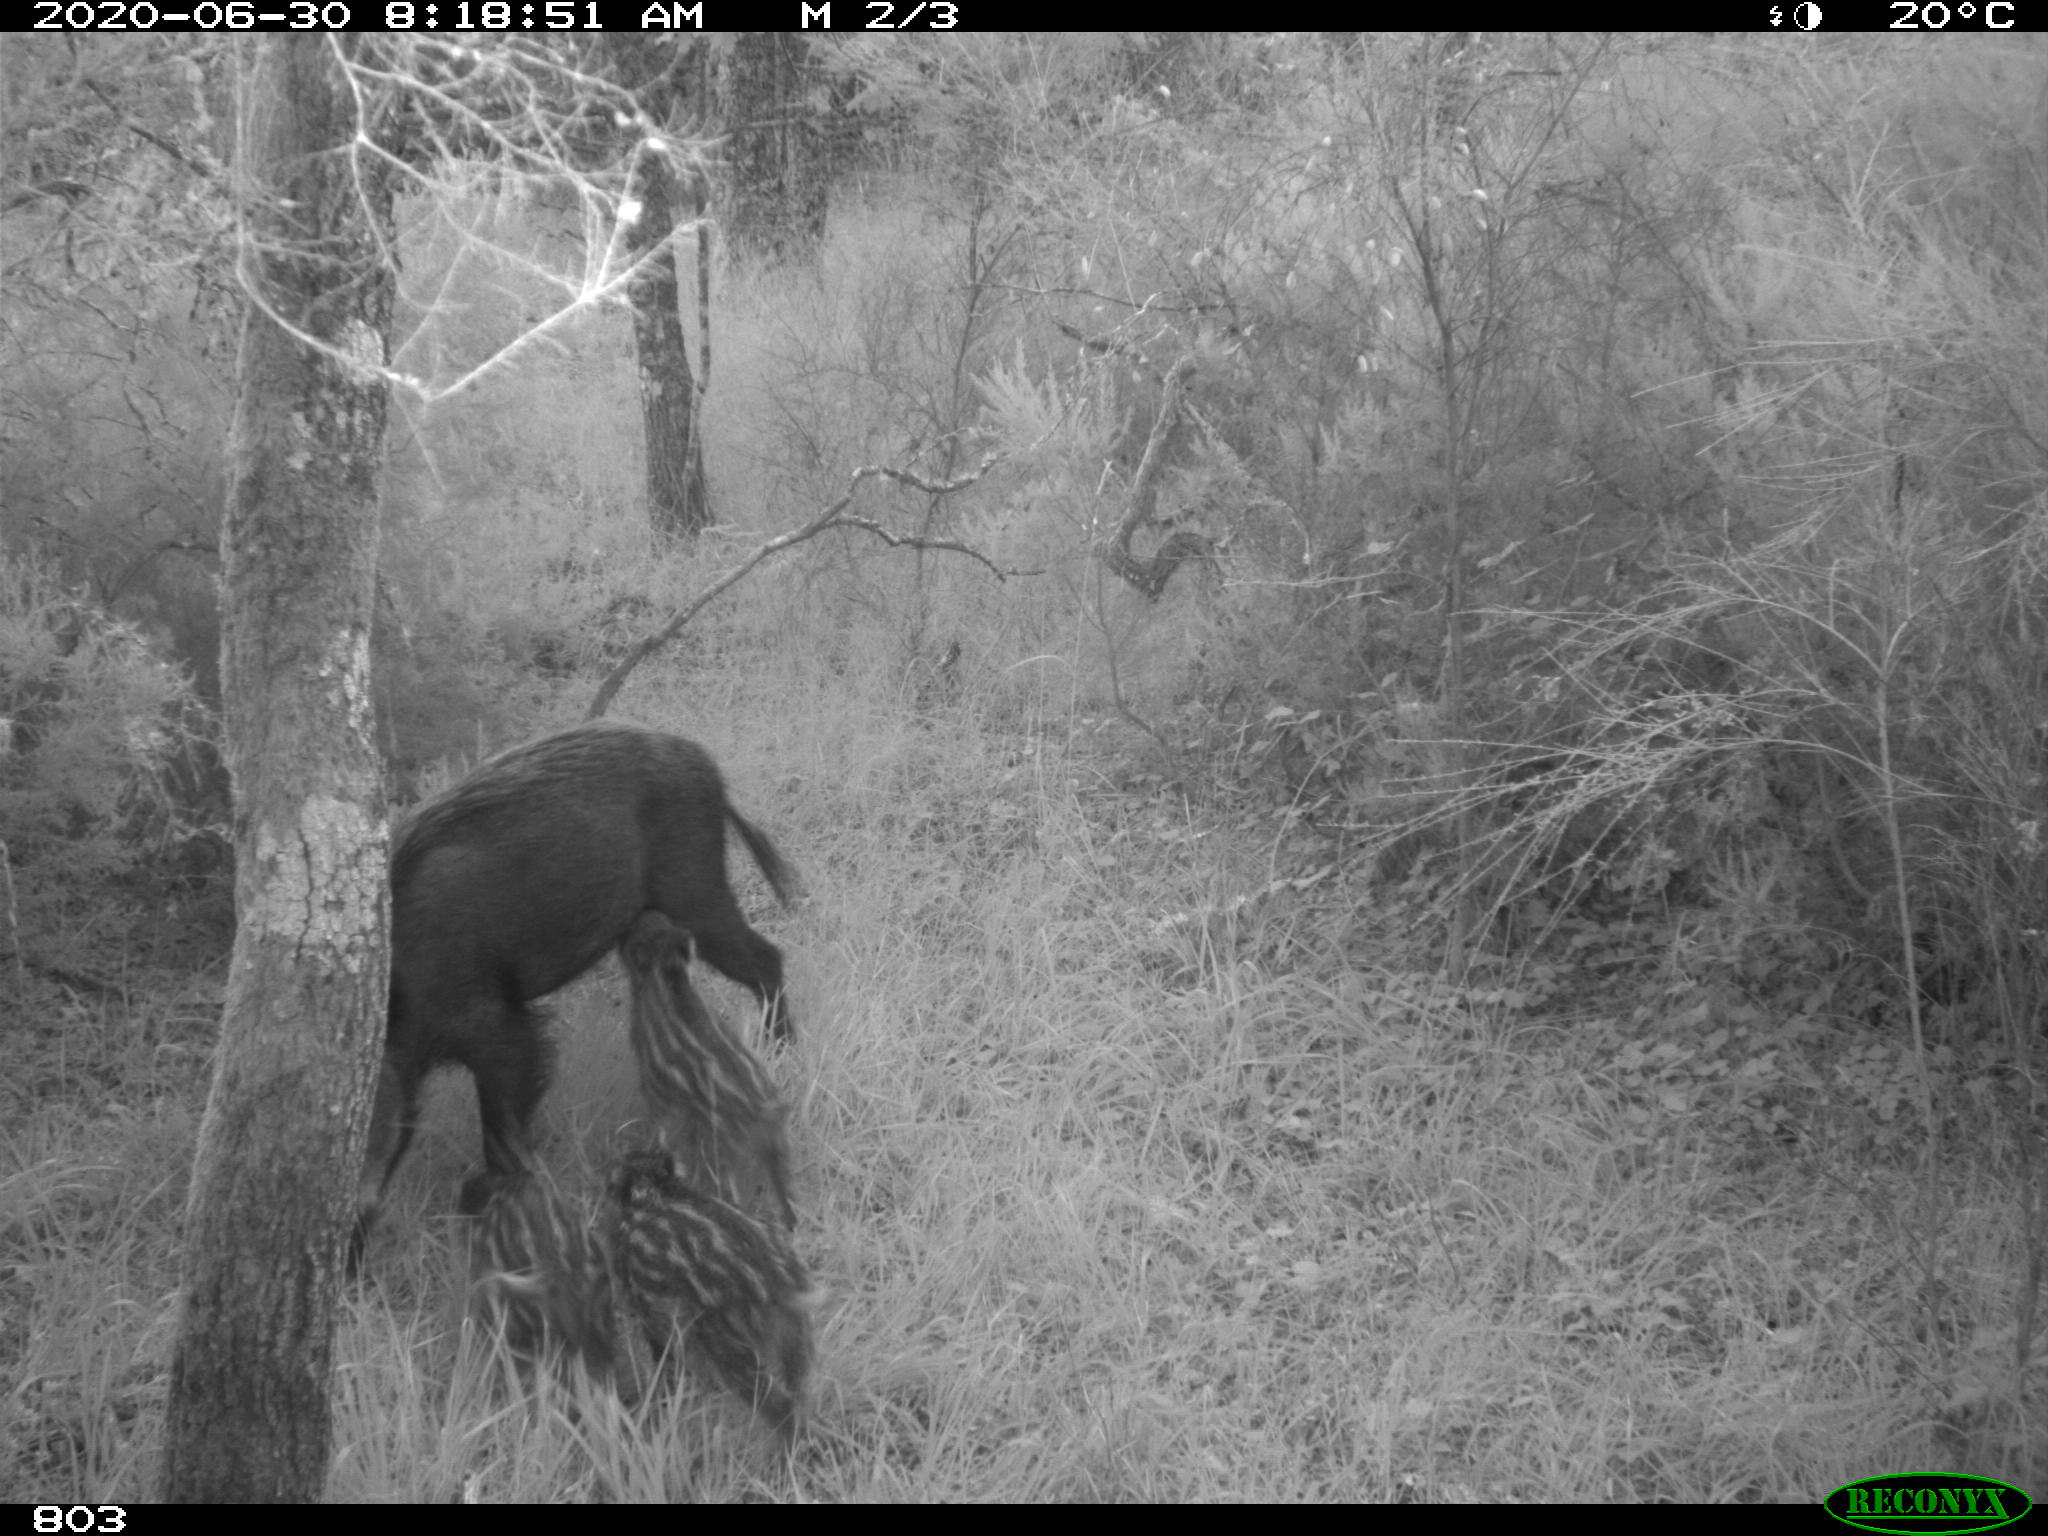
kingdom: Animalia
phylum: Chordata
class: Mammalia
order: Artiodactyla
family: Suidae
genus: Sus
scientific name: Sus scrofa
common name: Wild boar
